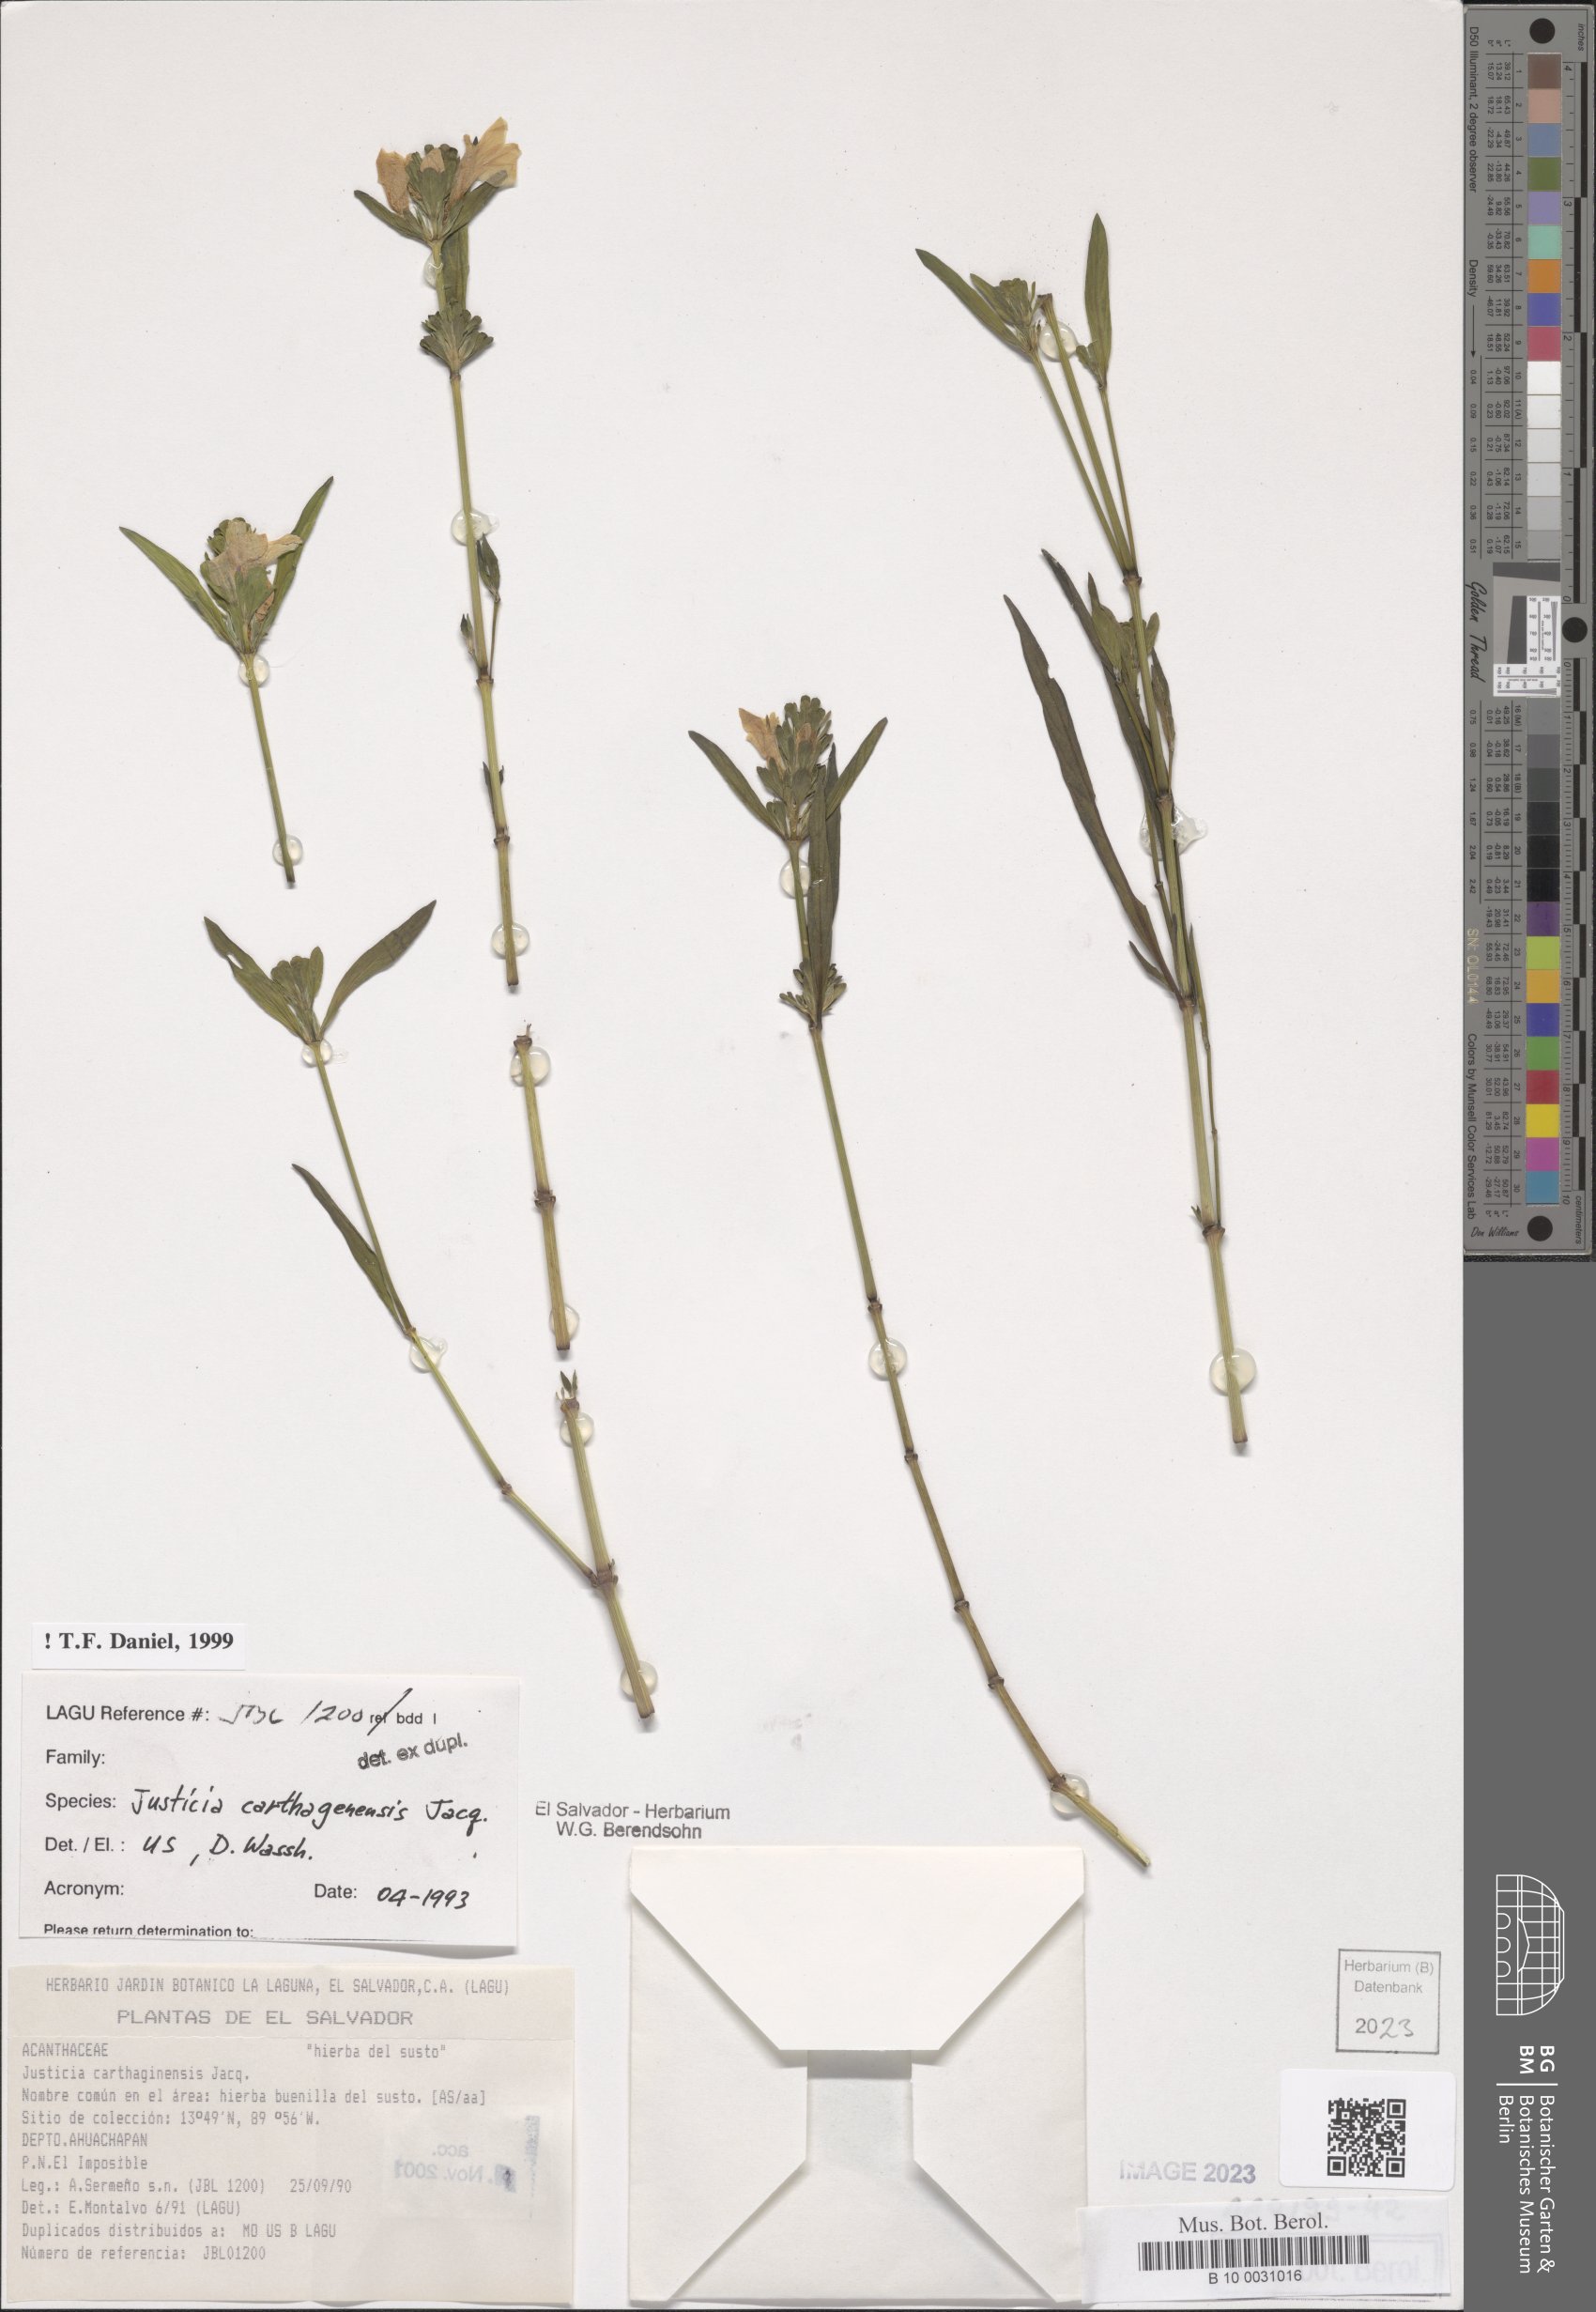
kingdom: Plantae
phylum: Tracheophyta
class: Magnoliopsida
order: Lamiales
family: Acanthaceae
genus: Justicia
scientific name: Justicia carthagenensis
